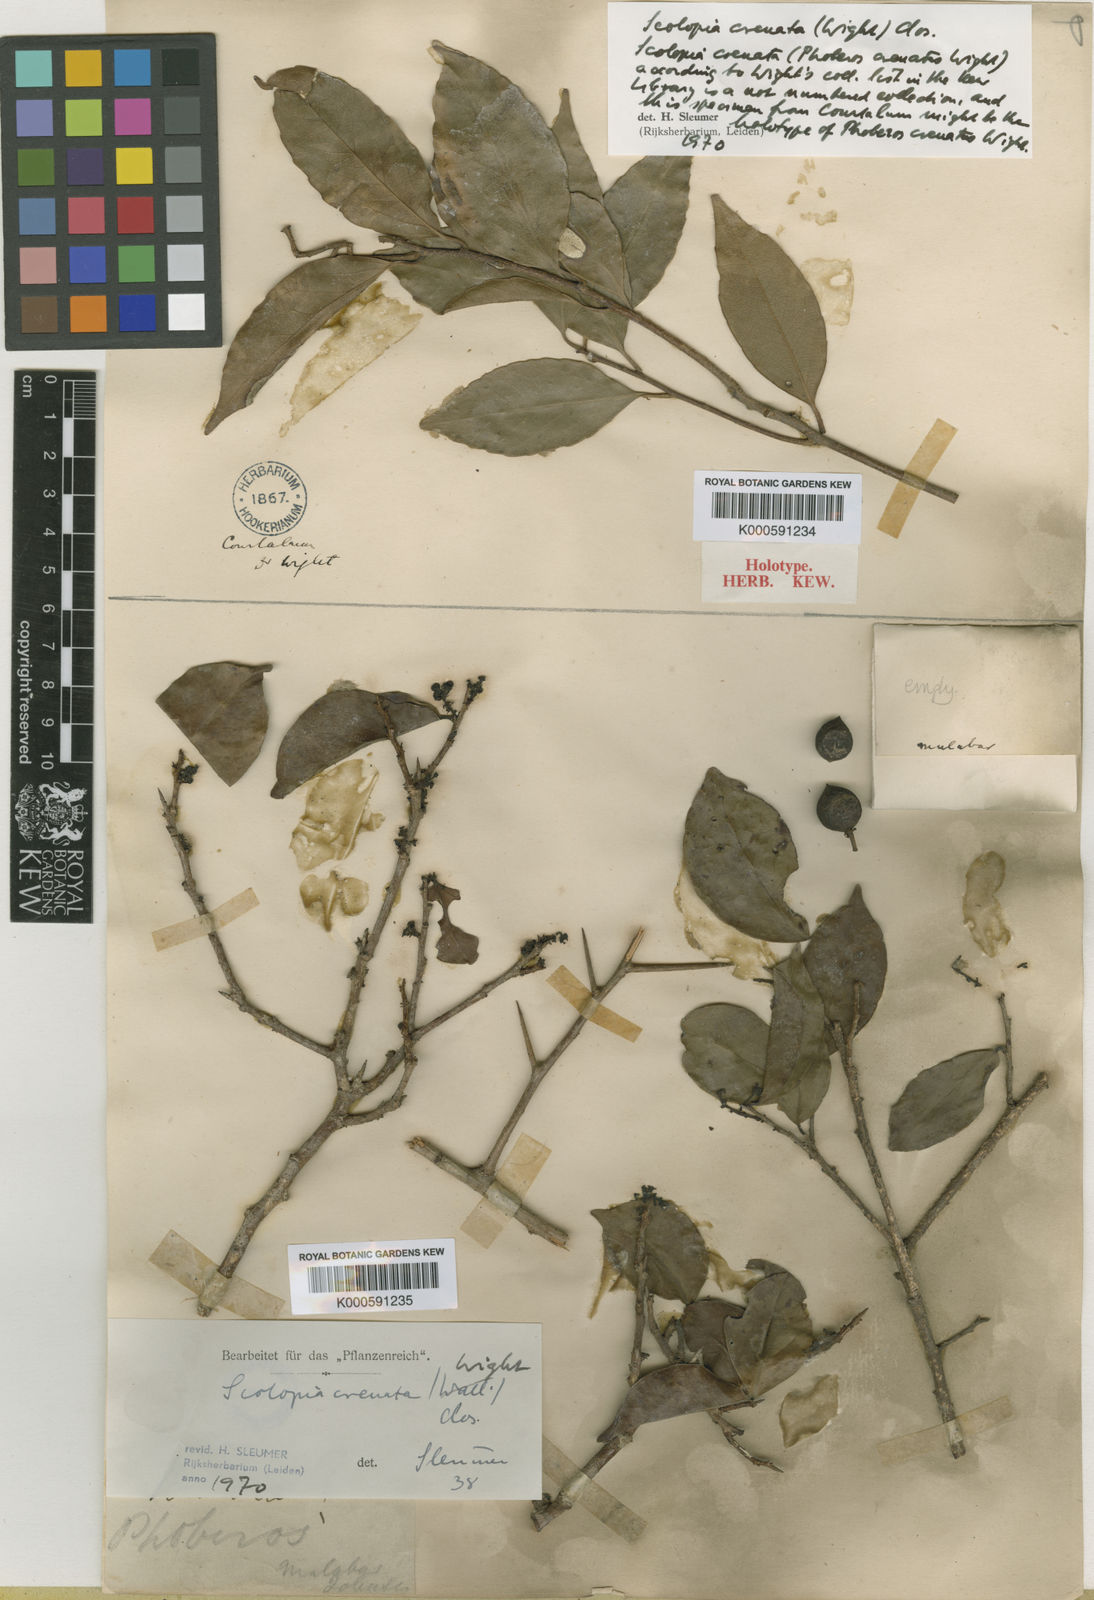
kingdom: Plantae
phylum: Tracheophyta
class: Magnoliopsida
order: Malpighiales
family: Salicaceae
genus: Scolopia
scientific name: Scolopia crenata
